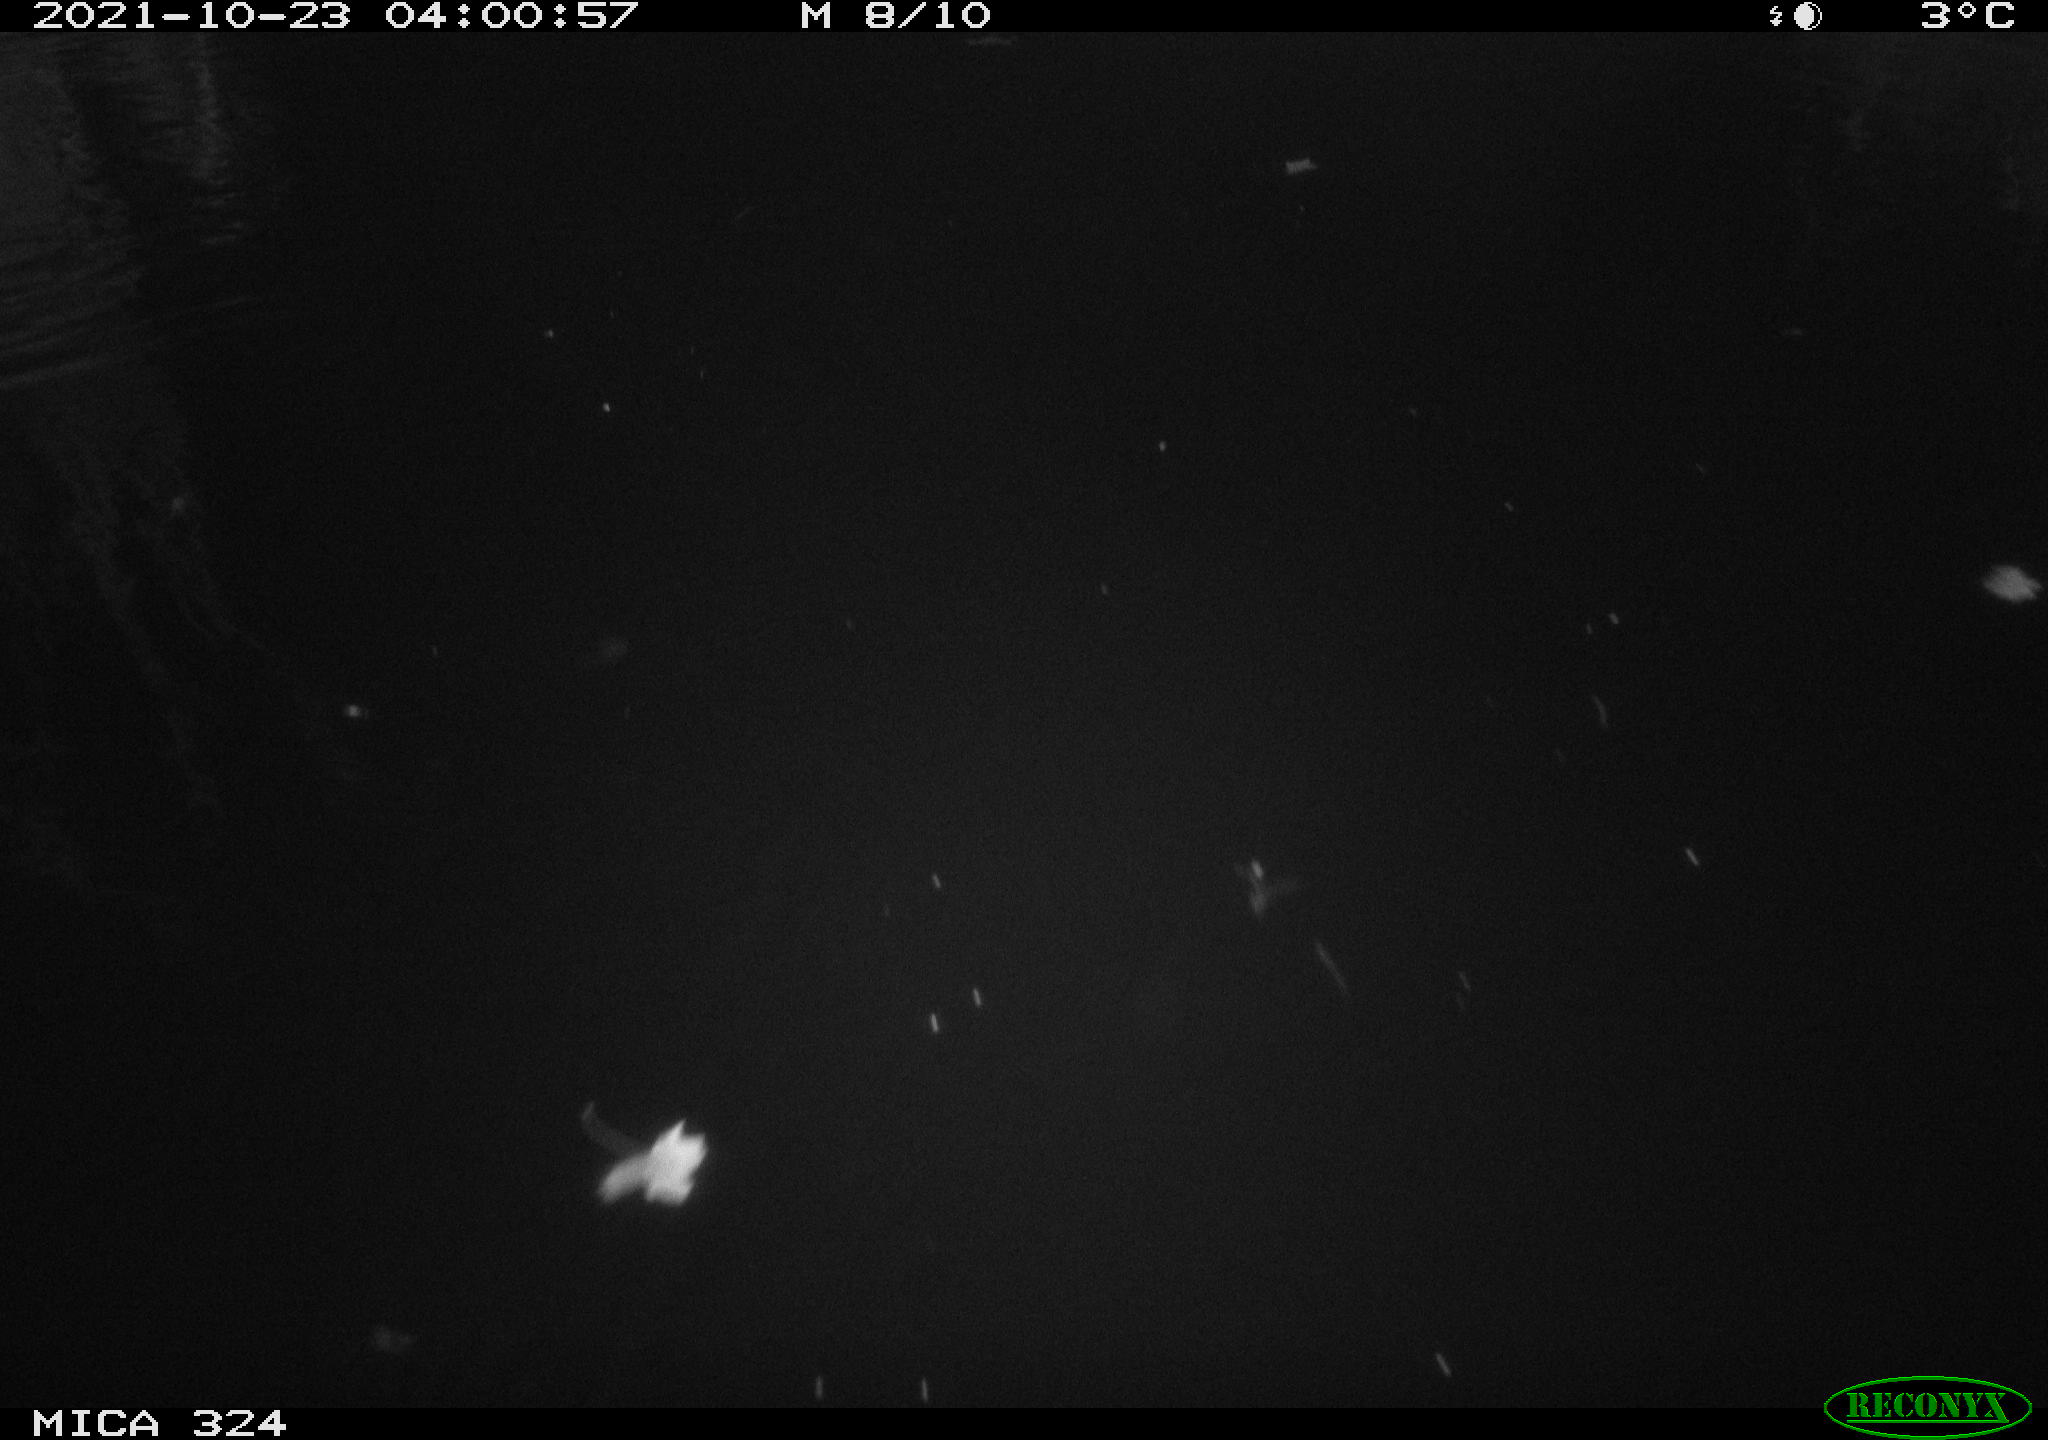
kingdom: Animalia
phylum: Chordata
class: Mammalia
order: Rodentia
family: Cricetidae
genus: Ondatra
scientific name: Ondatra zibethicus
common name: Muskrat
